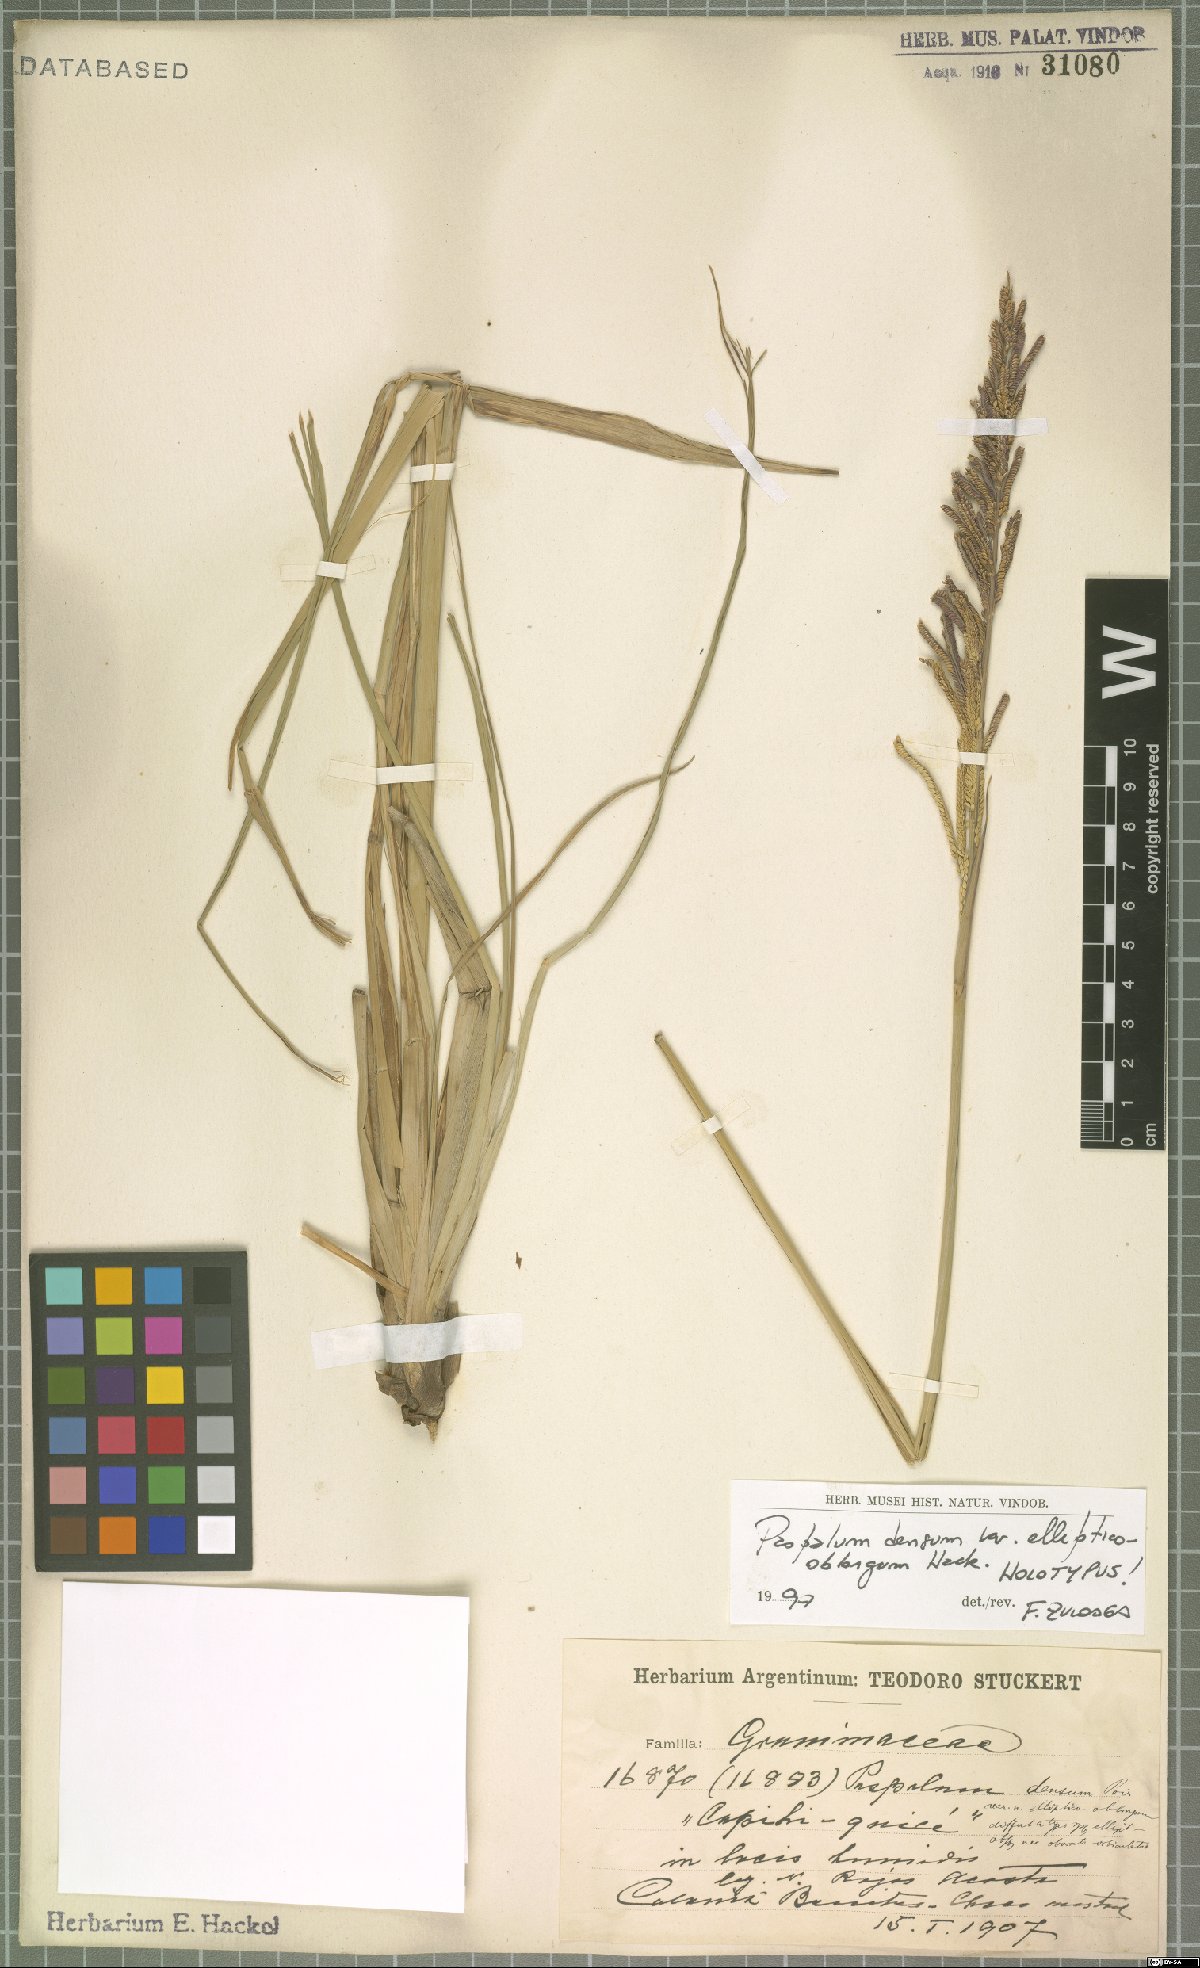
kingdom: Plantae
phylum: Tracheophyta
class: Liliopsida
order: Poales
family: Poaceae
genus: Paspalum
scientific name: Paspalum intermedium
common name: Intermediate paspalum
